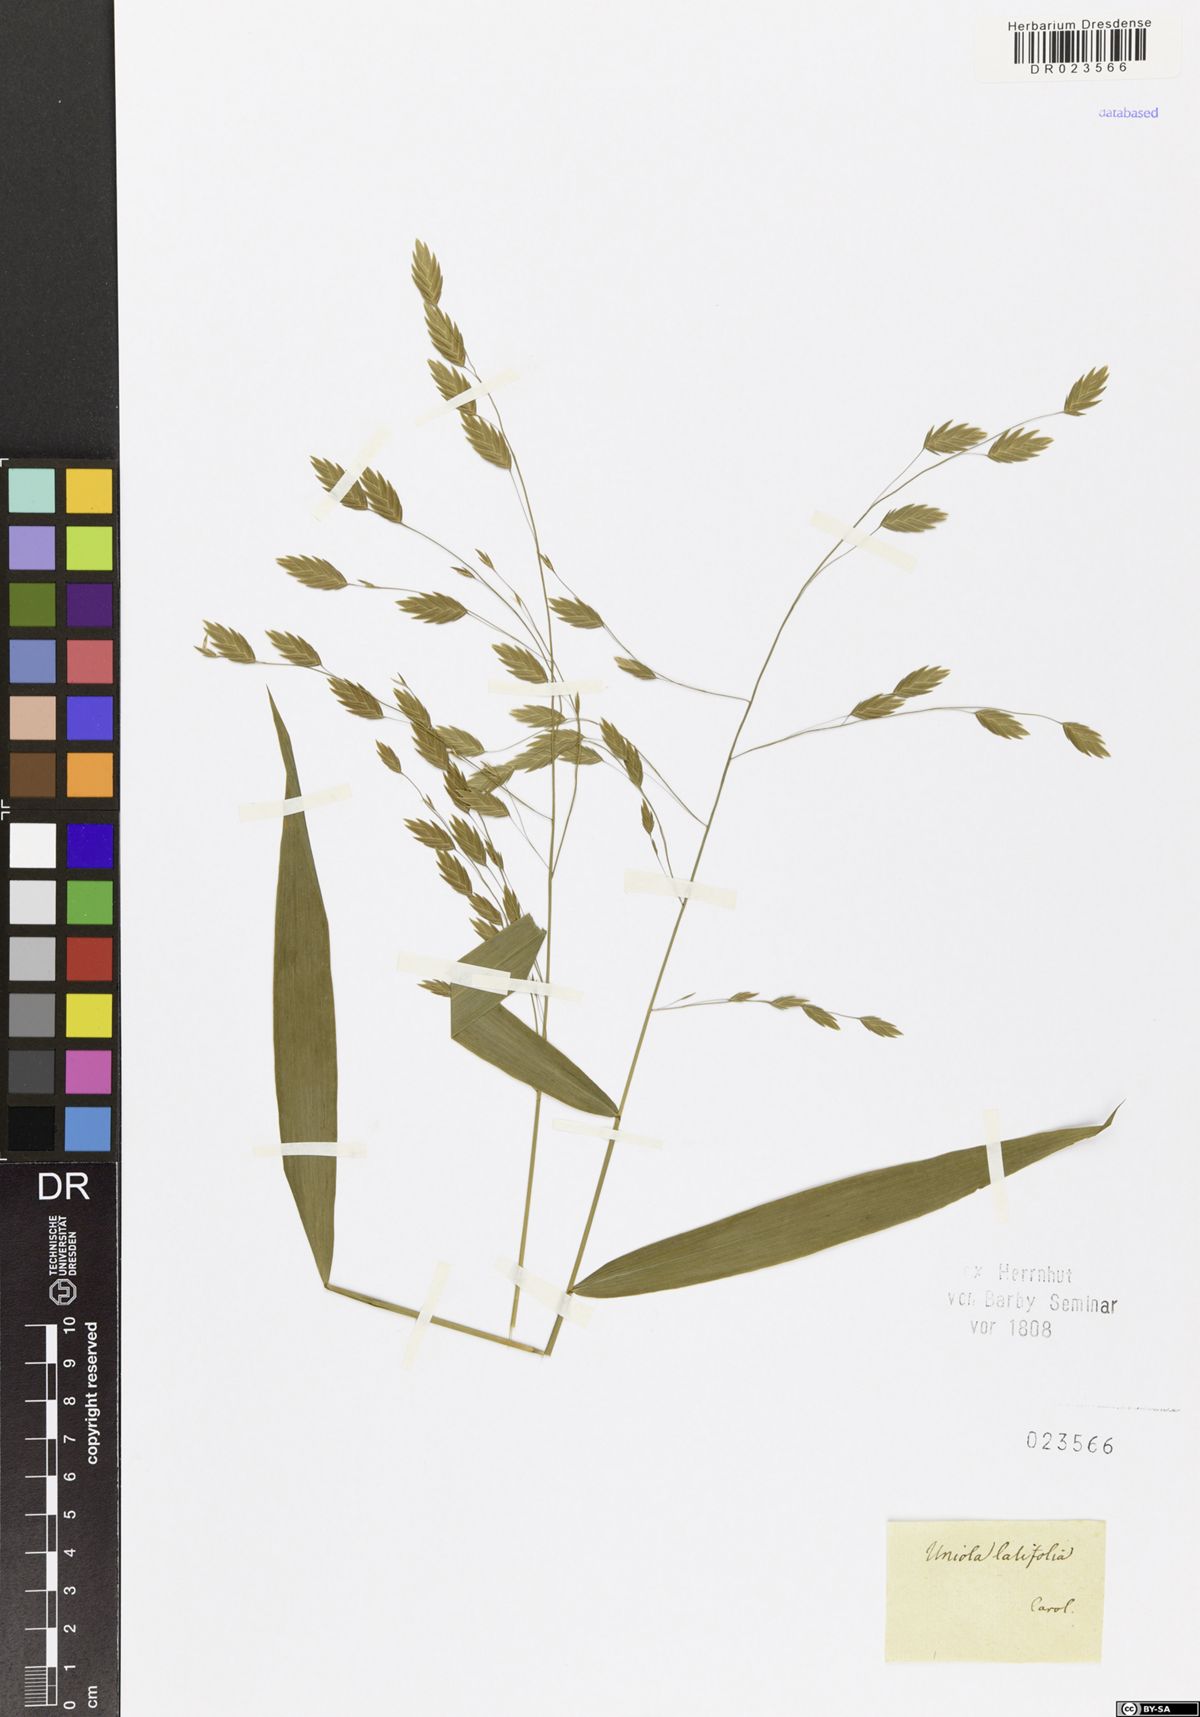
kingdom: Plantae
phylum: Tracheophyta
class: Liliopsida
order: Poales
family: Poaceae
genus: Chasmanthium
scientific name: Chasmanthium latifolium
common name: Broad-leaved chasmanthium
